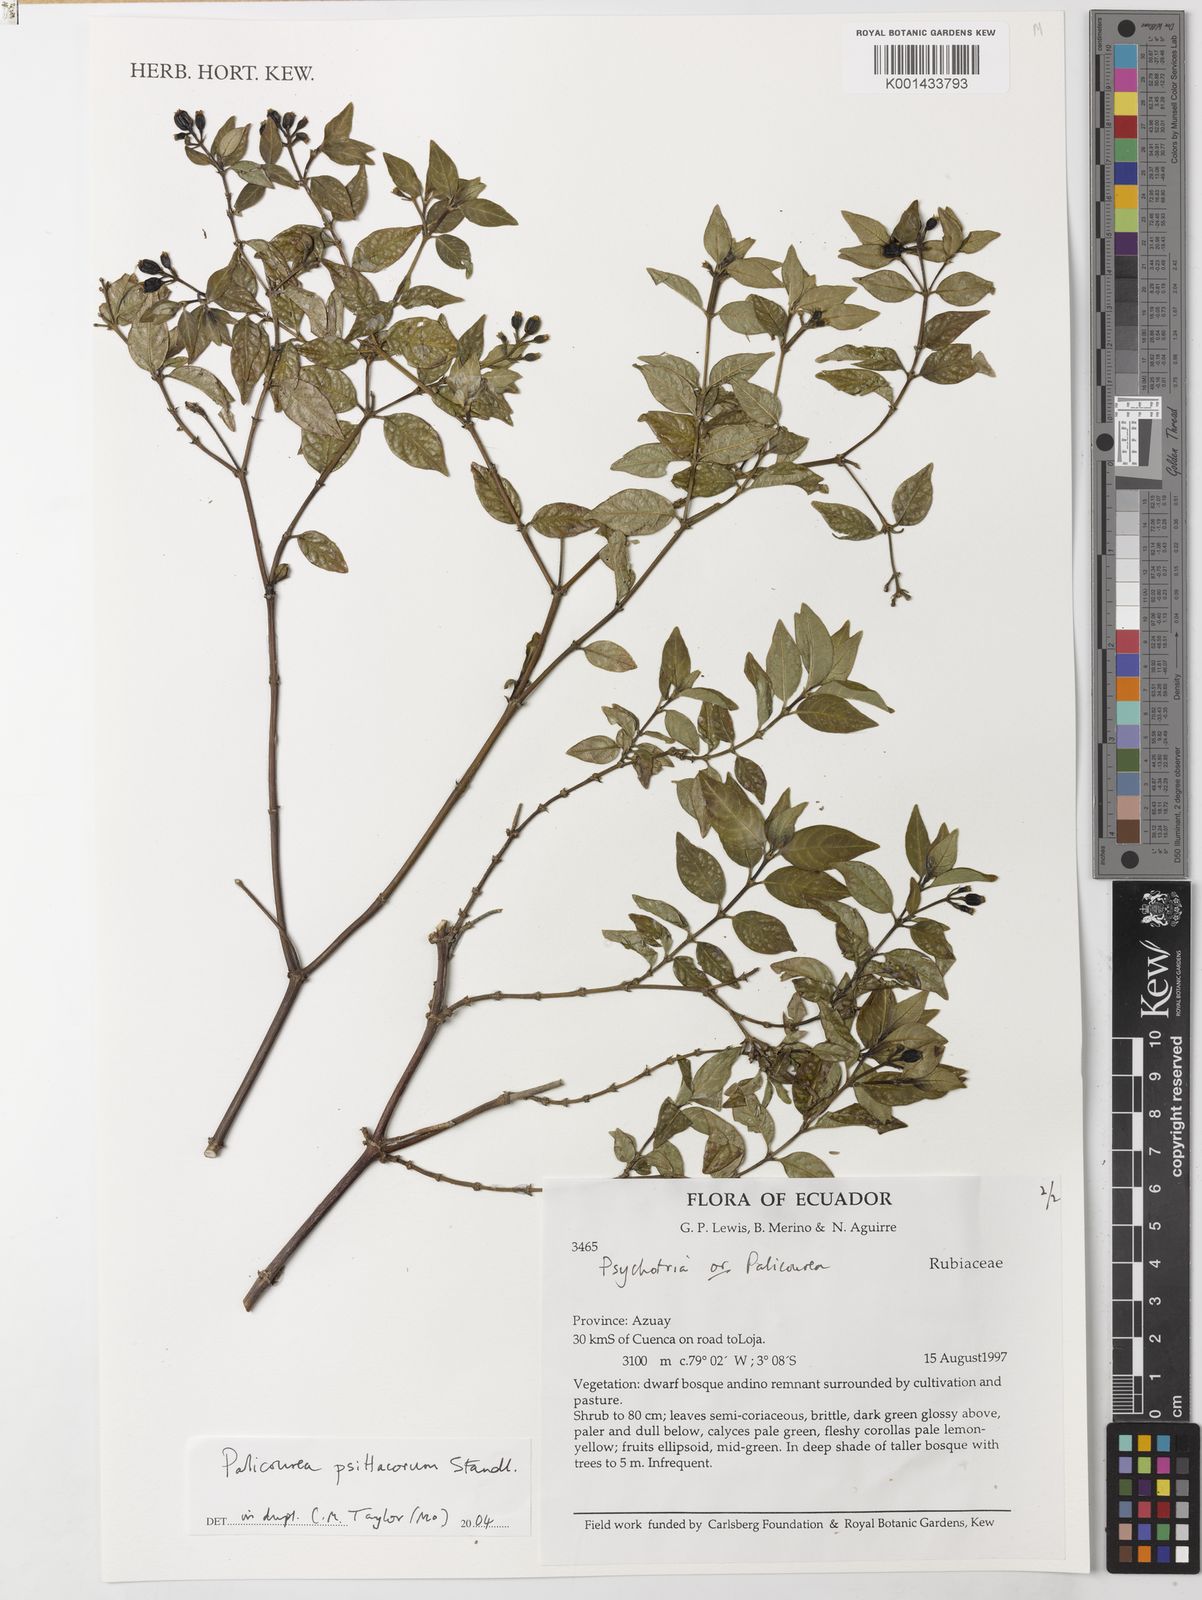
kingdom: Plantae
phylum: Tracheophyta
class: Magnoliopsida
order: Gentianales
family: Rubiaceae
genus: Palicourea
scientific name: Palicourea psittacorum
